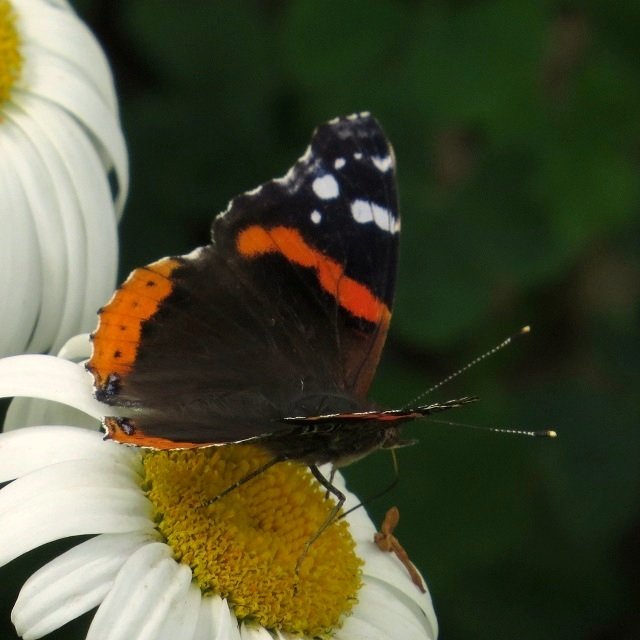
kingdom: Animalia
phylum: Arthropoda
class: Insecta
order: Lepidoptera
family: Nymphalidae
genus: Vanessa
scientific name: Vanessa atalanta
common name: Red Admiral
